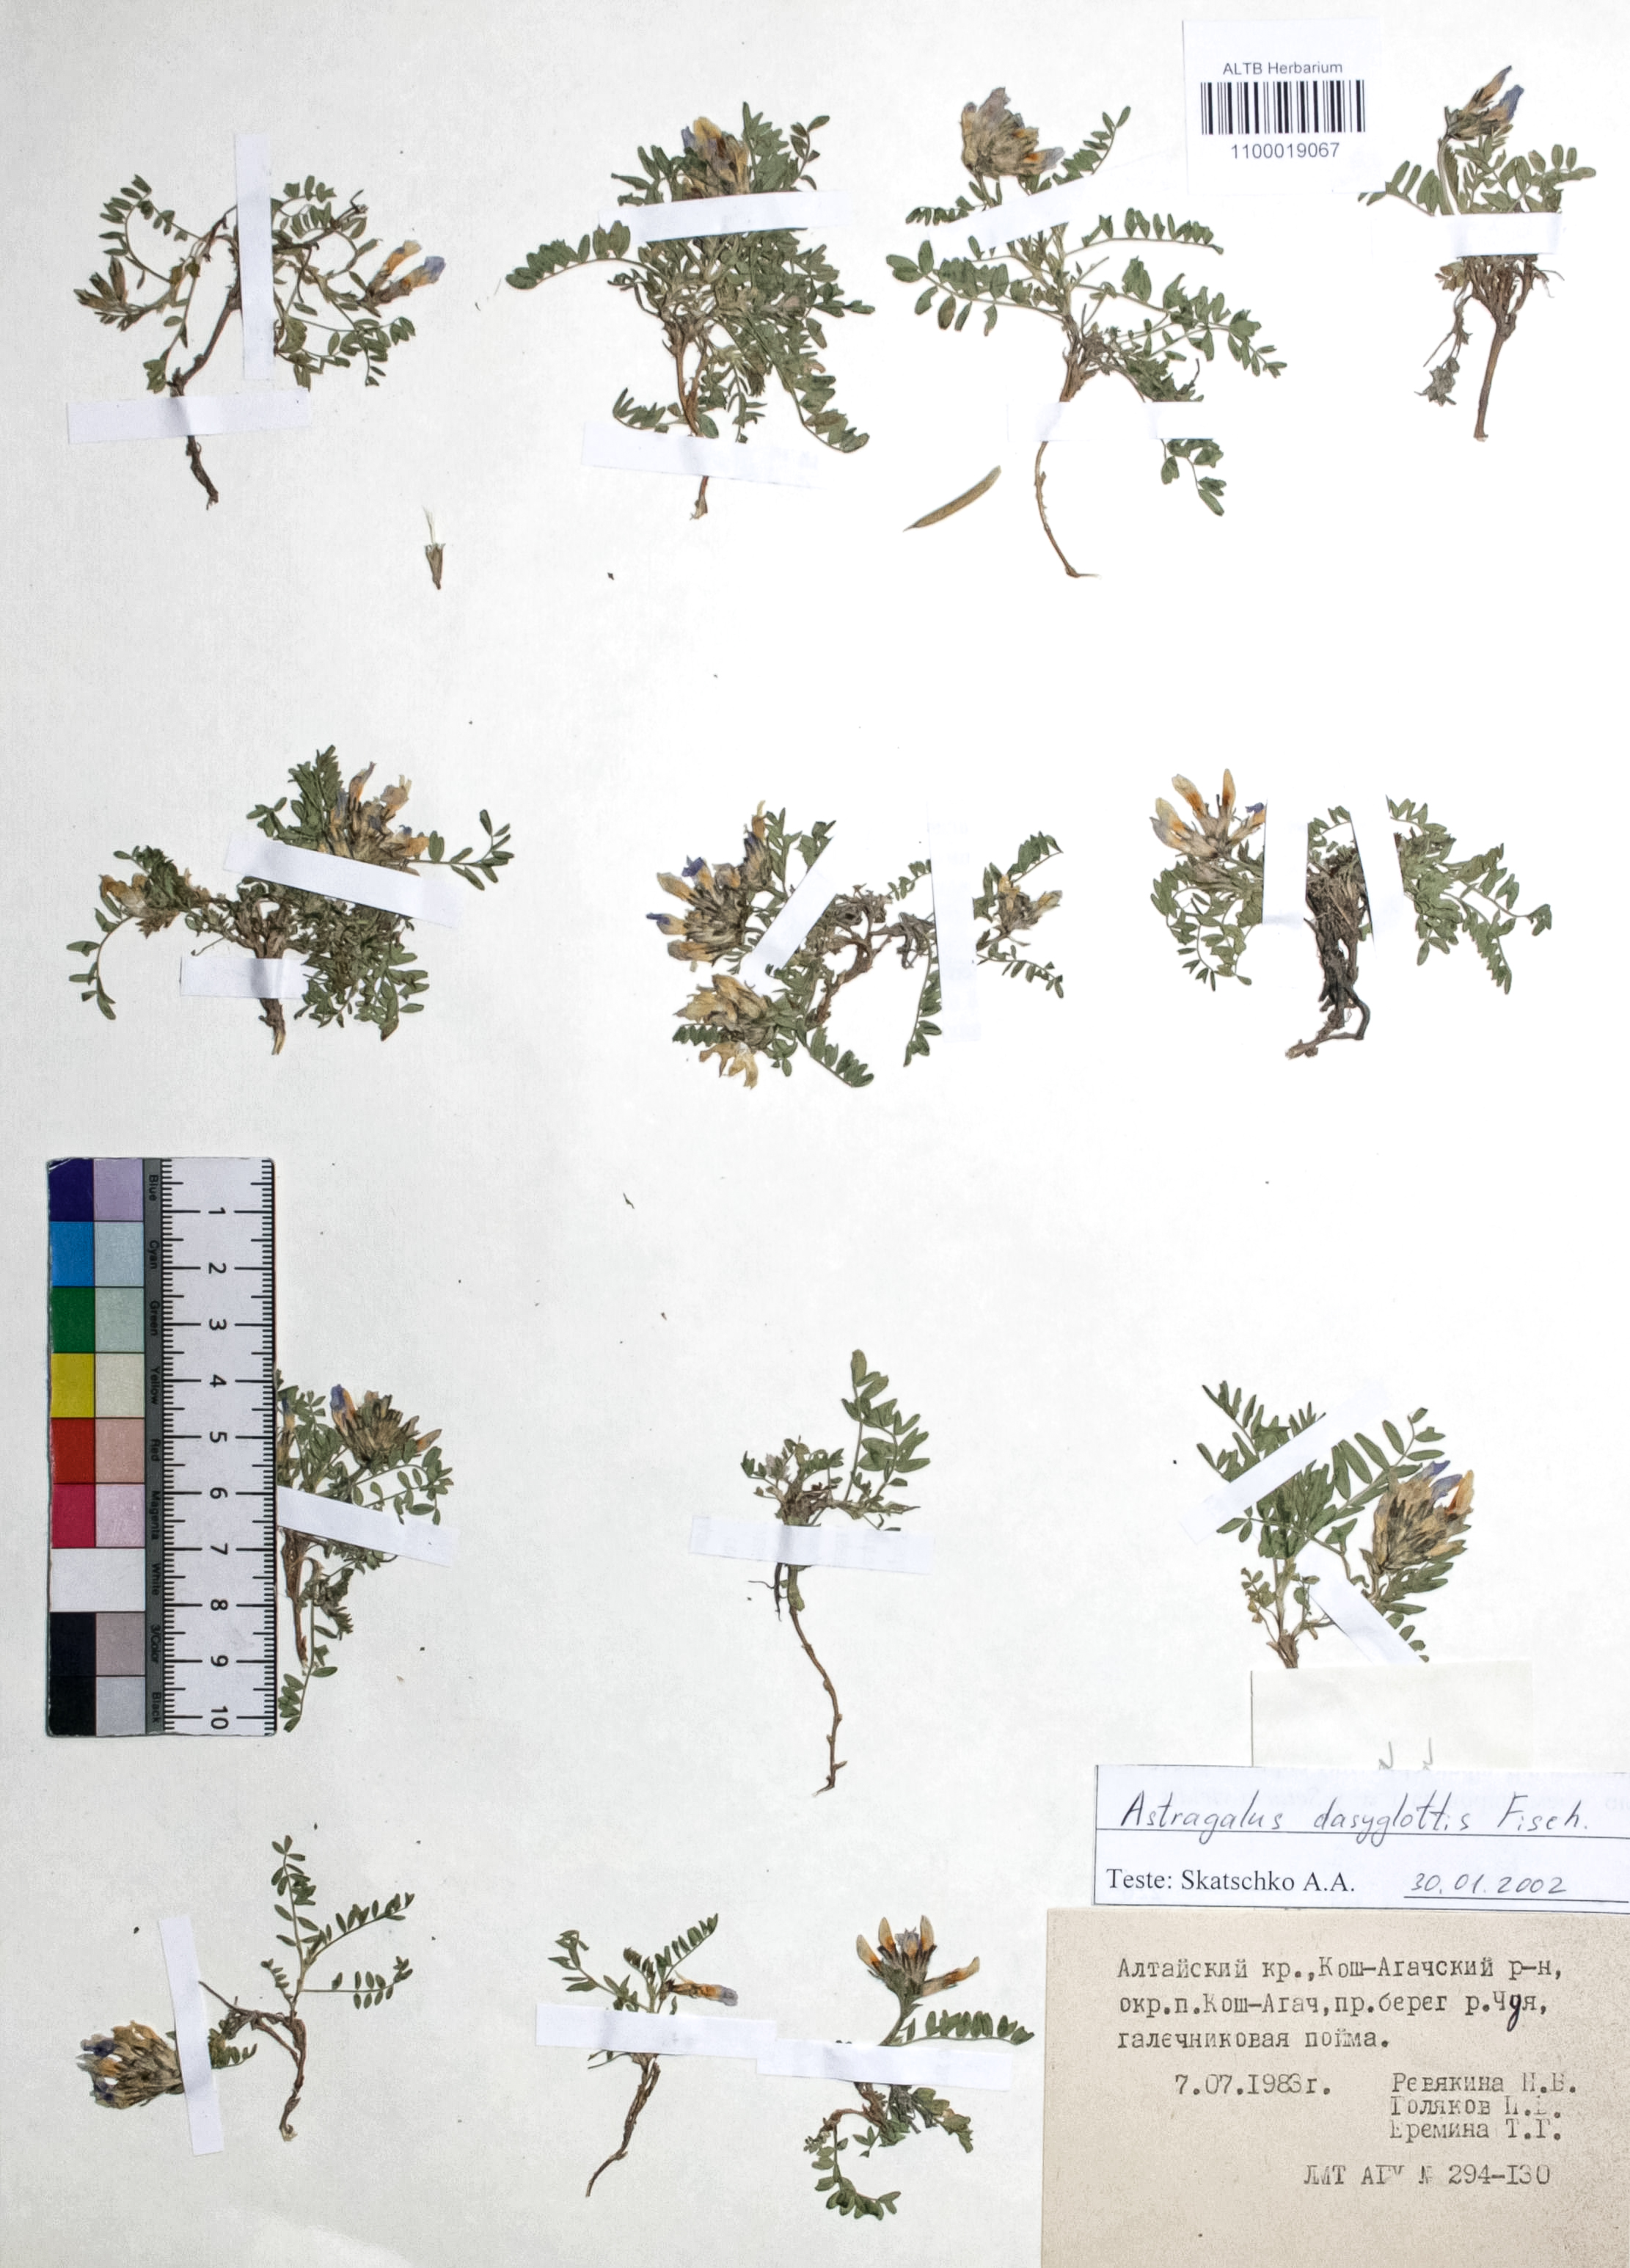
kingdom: Plantae
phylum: Tracheophyta
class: Magnoliopsida
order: Fabales
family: Fabaceae
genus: Astragalus
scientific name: Astragalus agrestis
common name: Field milk-vetch
